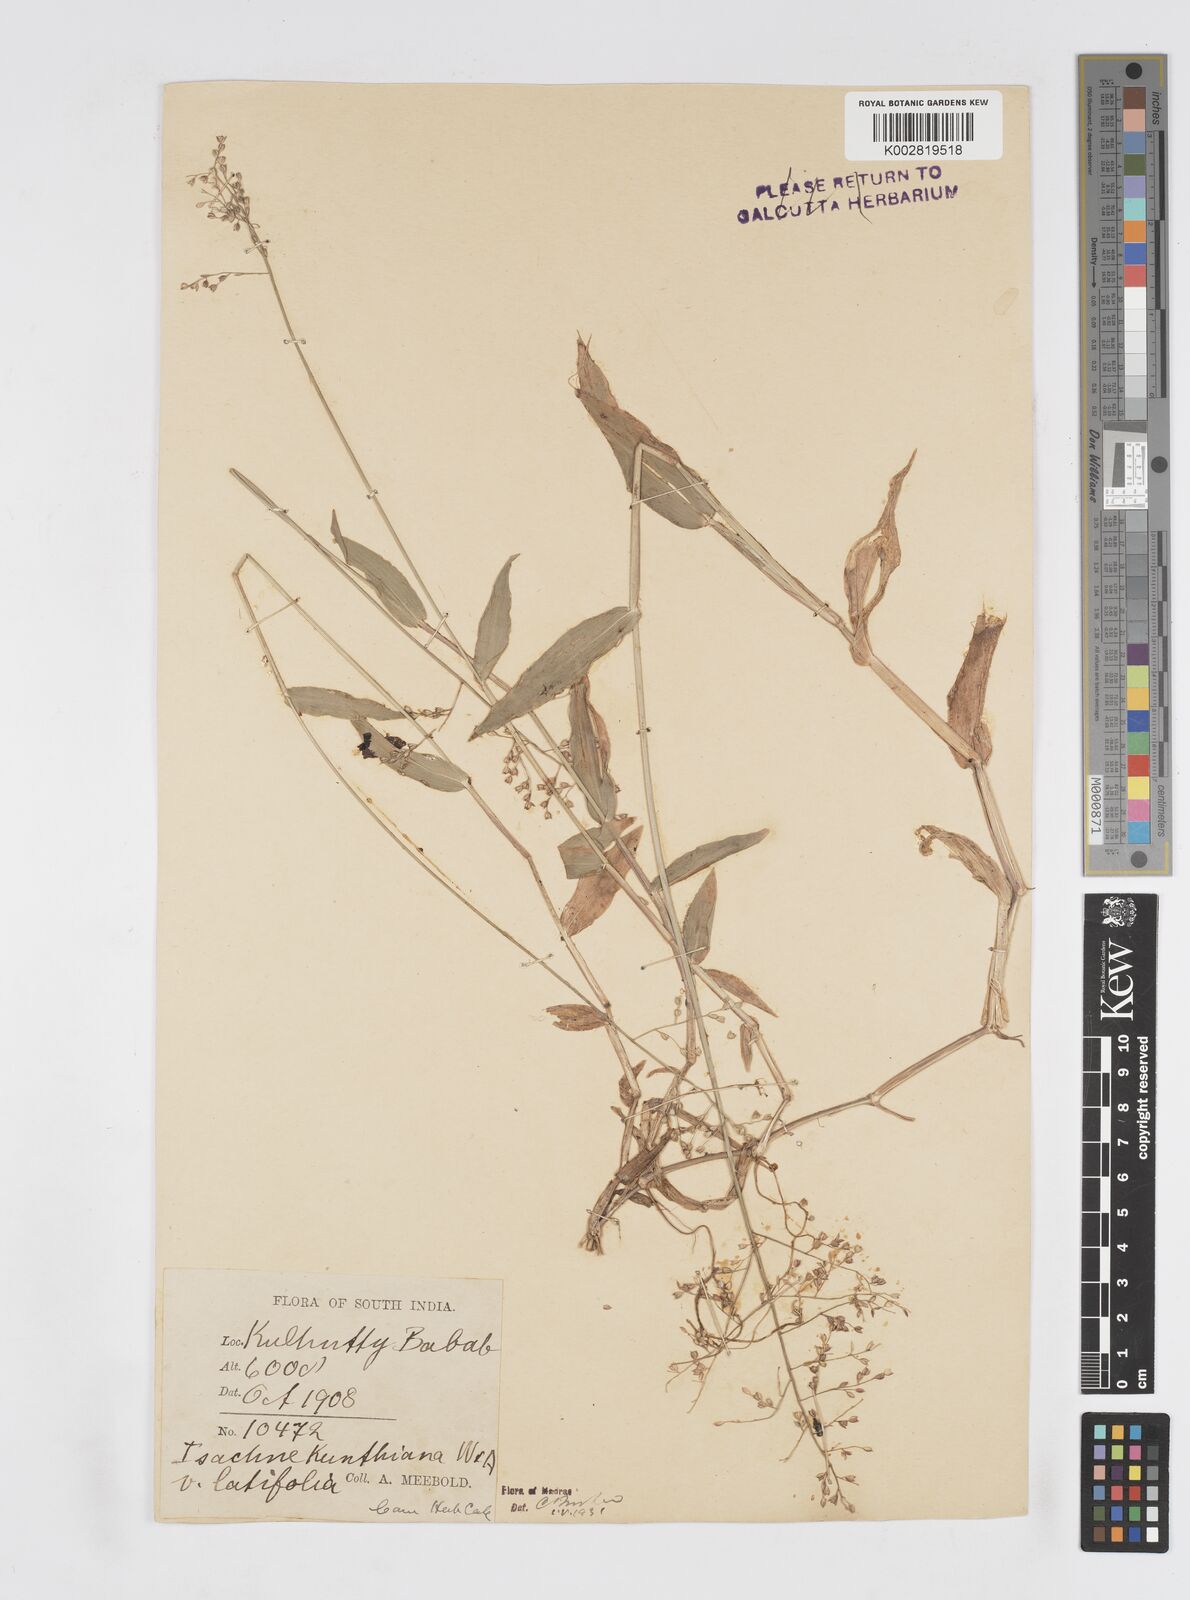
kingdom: Plantae
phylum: Tracheophyta
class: Liliopsida
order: Poales
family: Poaceae
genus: Isachne
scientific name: Isachne kunthiana
